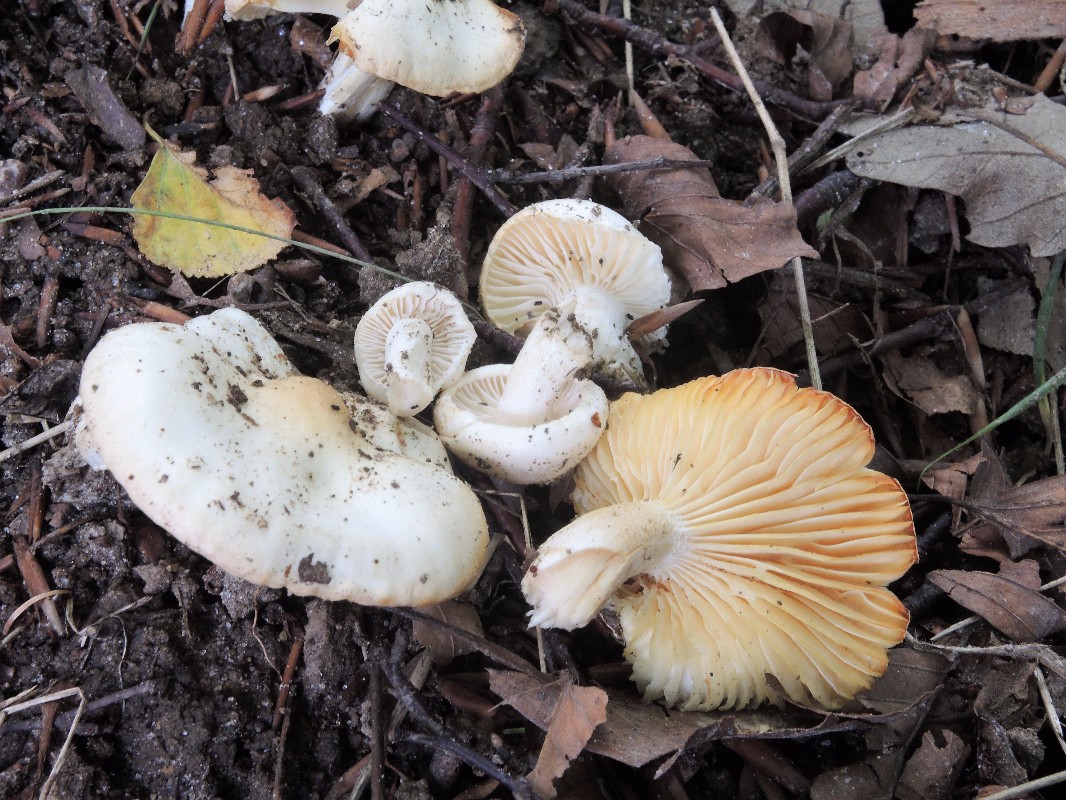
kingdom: Fungi
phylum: Basidiomycota
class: Agaricomycetes
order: Agaricales
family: Hygrophoraceae
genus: Hygrophorus
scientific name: Hygrophorus discoxanthus
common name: ildelugtende sneglehat
